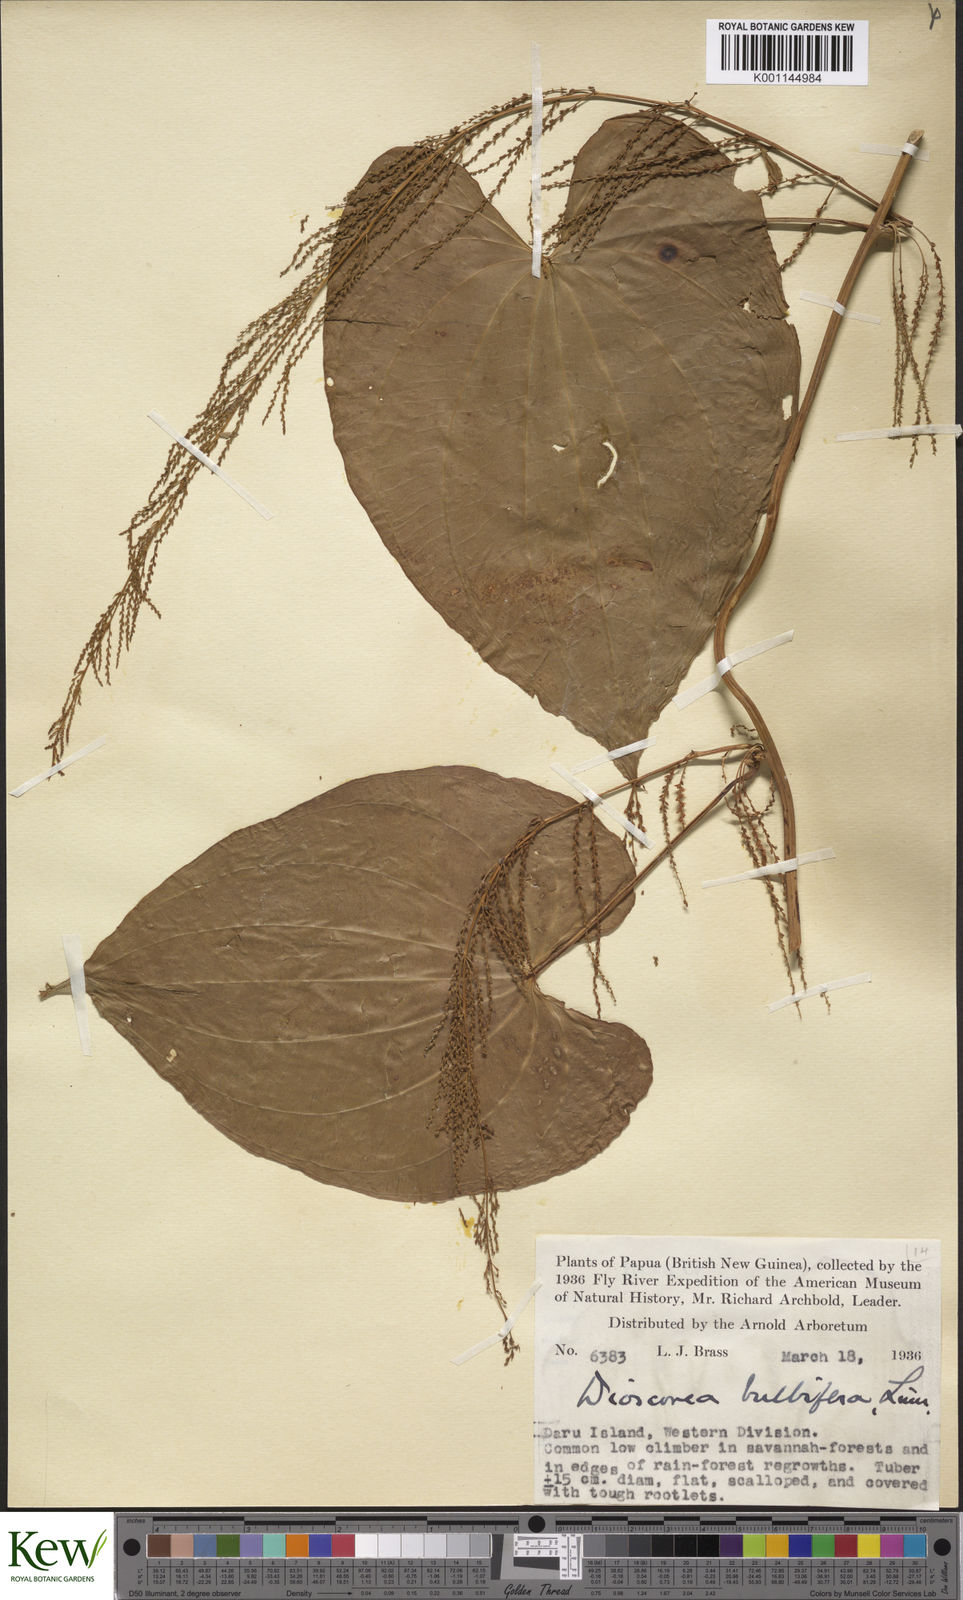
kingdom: Plantae
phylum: Tracheophyta
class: Liliopsida
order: Dioscoreales
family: Dioscoreaceae
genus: Dioscorea
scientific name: Dioscorea bulbifera
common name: Air yam
